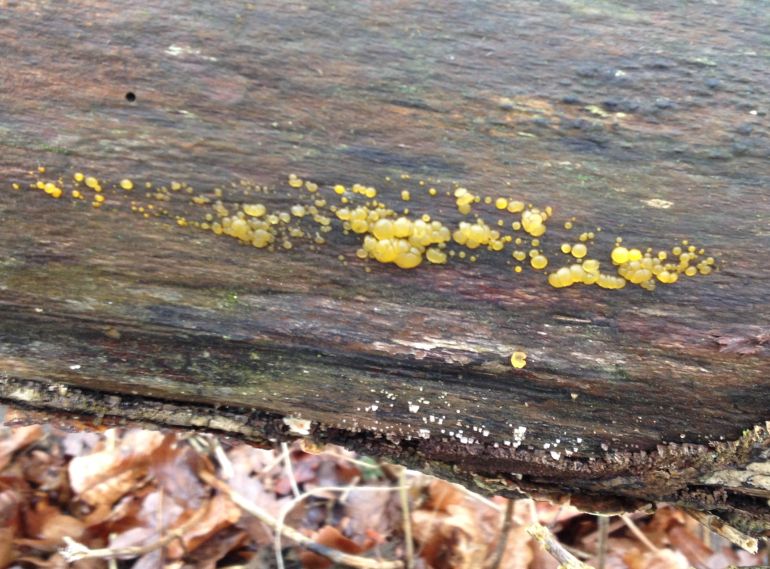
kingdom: Fungi
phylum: Basidiomycota
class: Dacrymycetes
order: Dacrymycetales
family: Dacrymycetaceae
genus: Dacrymyces
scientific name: Dacrymyces lacrymalis
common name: rynket tåresvamp
